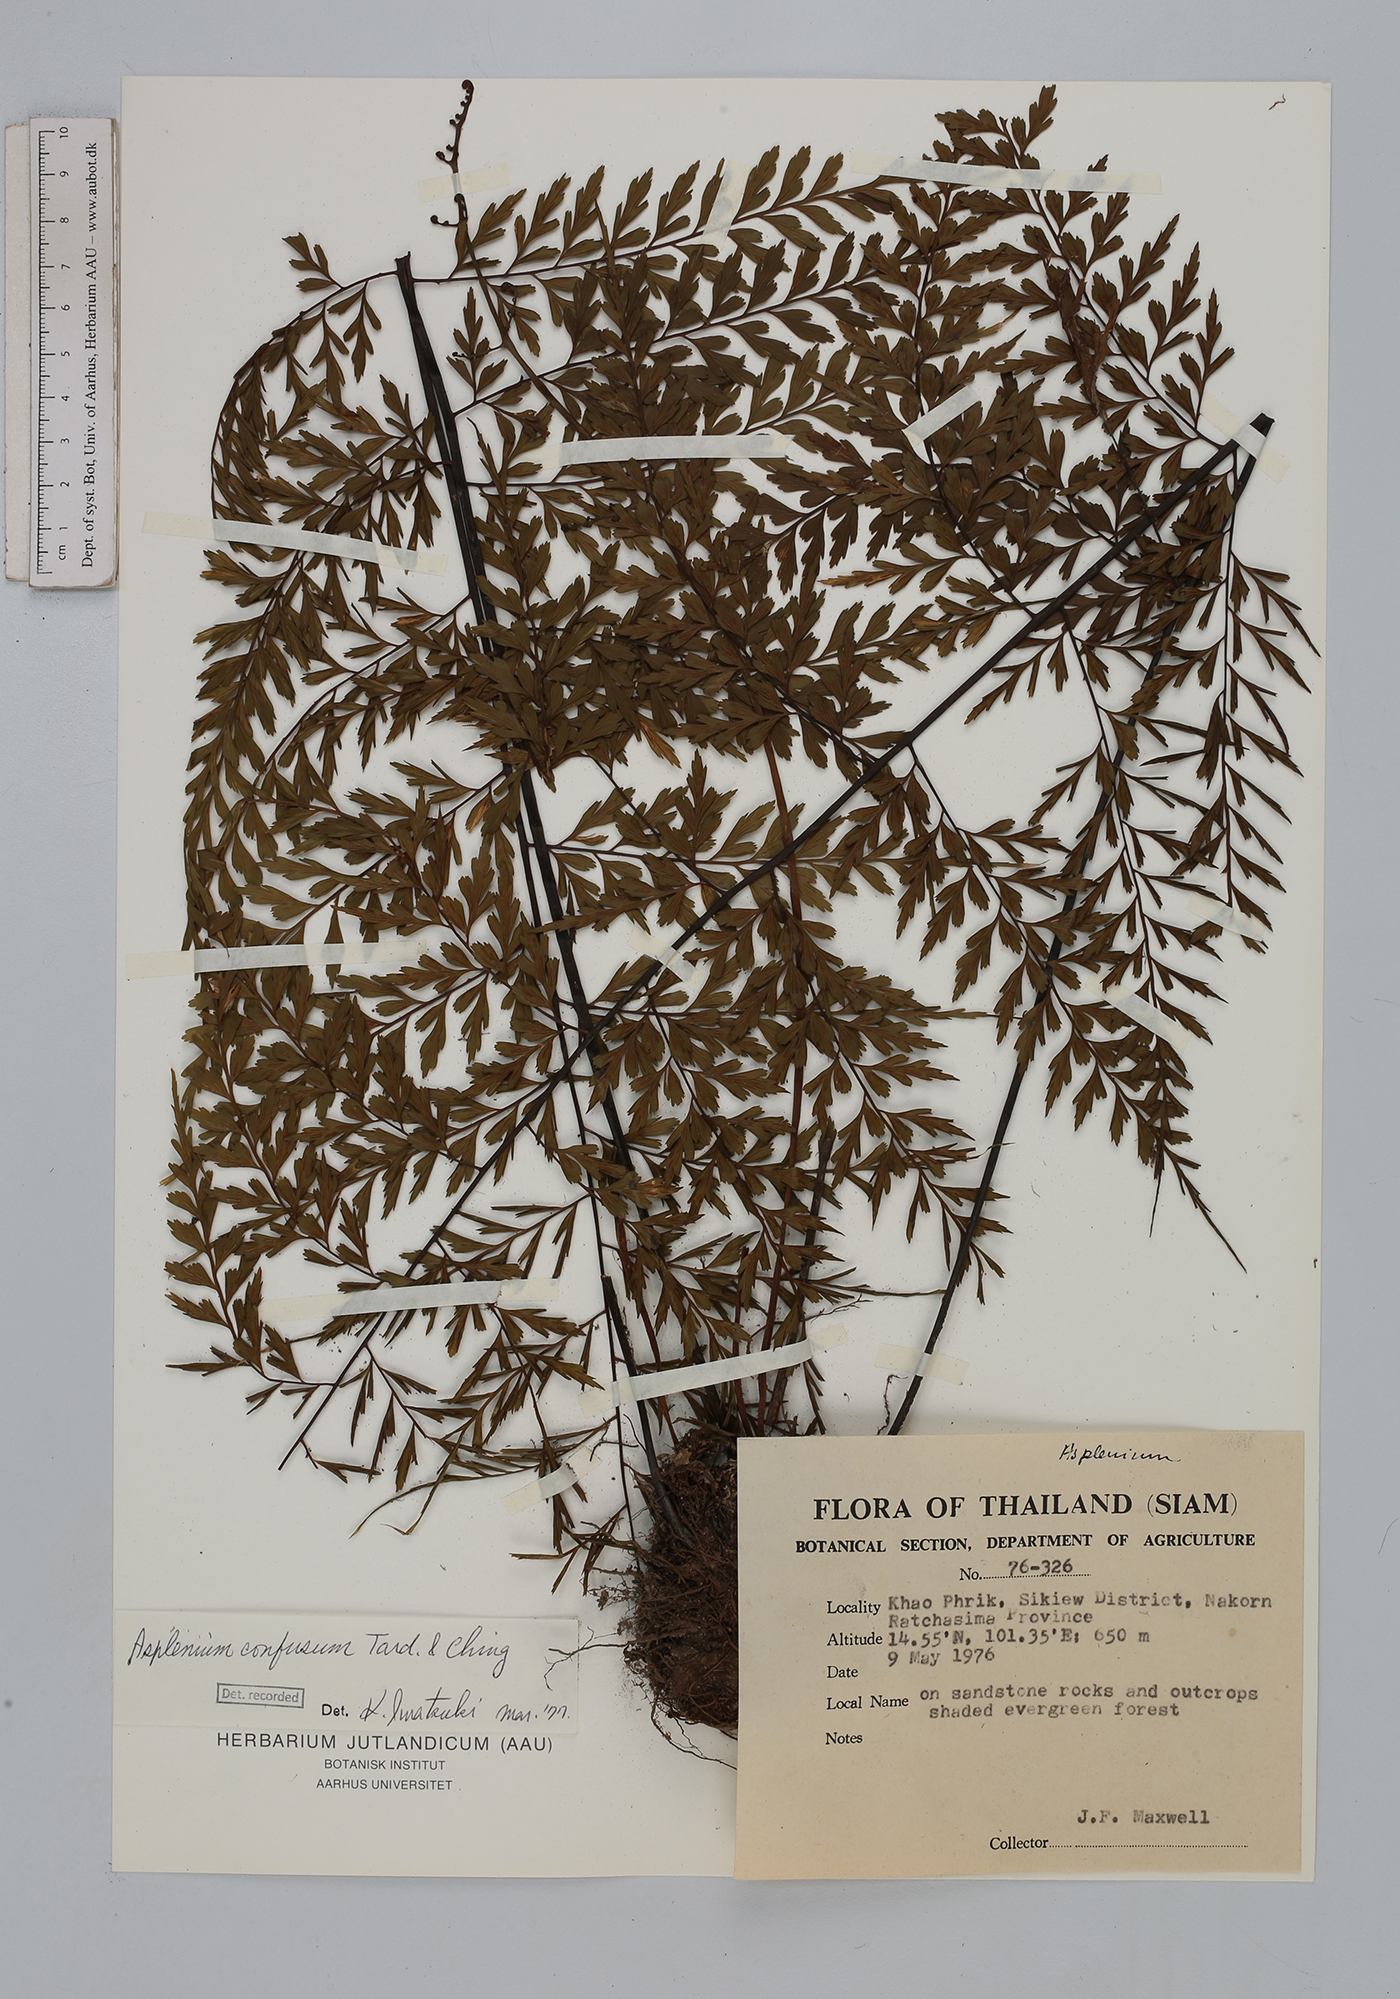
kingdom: Plantae
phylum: Tracheophyta
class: Polypodiopsida
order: Polypodiales
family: Aspleniaceae
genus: Asplenium
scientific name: Asplenium cristatum
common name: Parsley spleenwort
